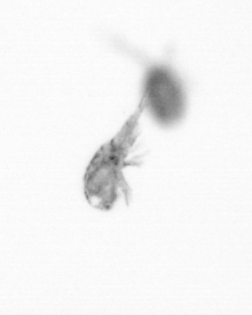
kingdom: Animalia
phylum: Arthropoda
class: Copepoda
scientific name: Copepoda
